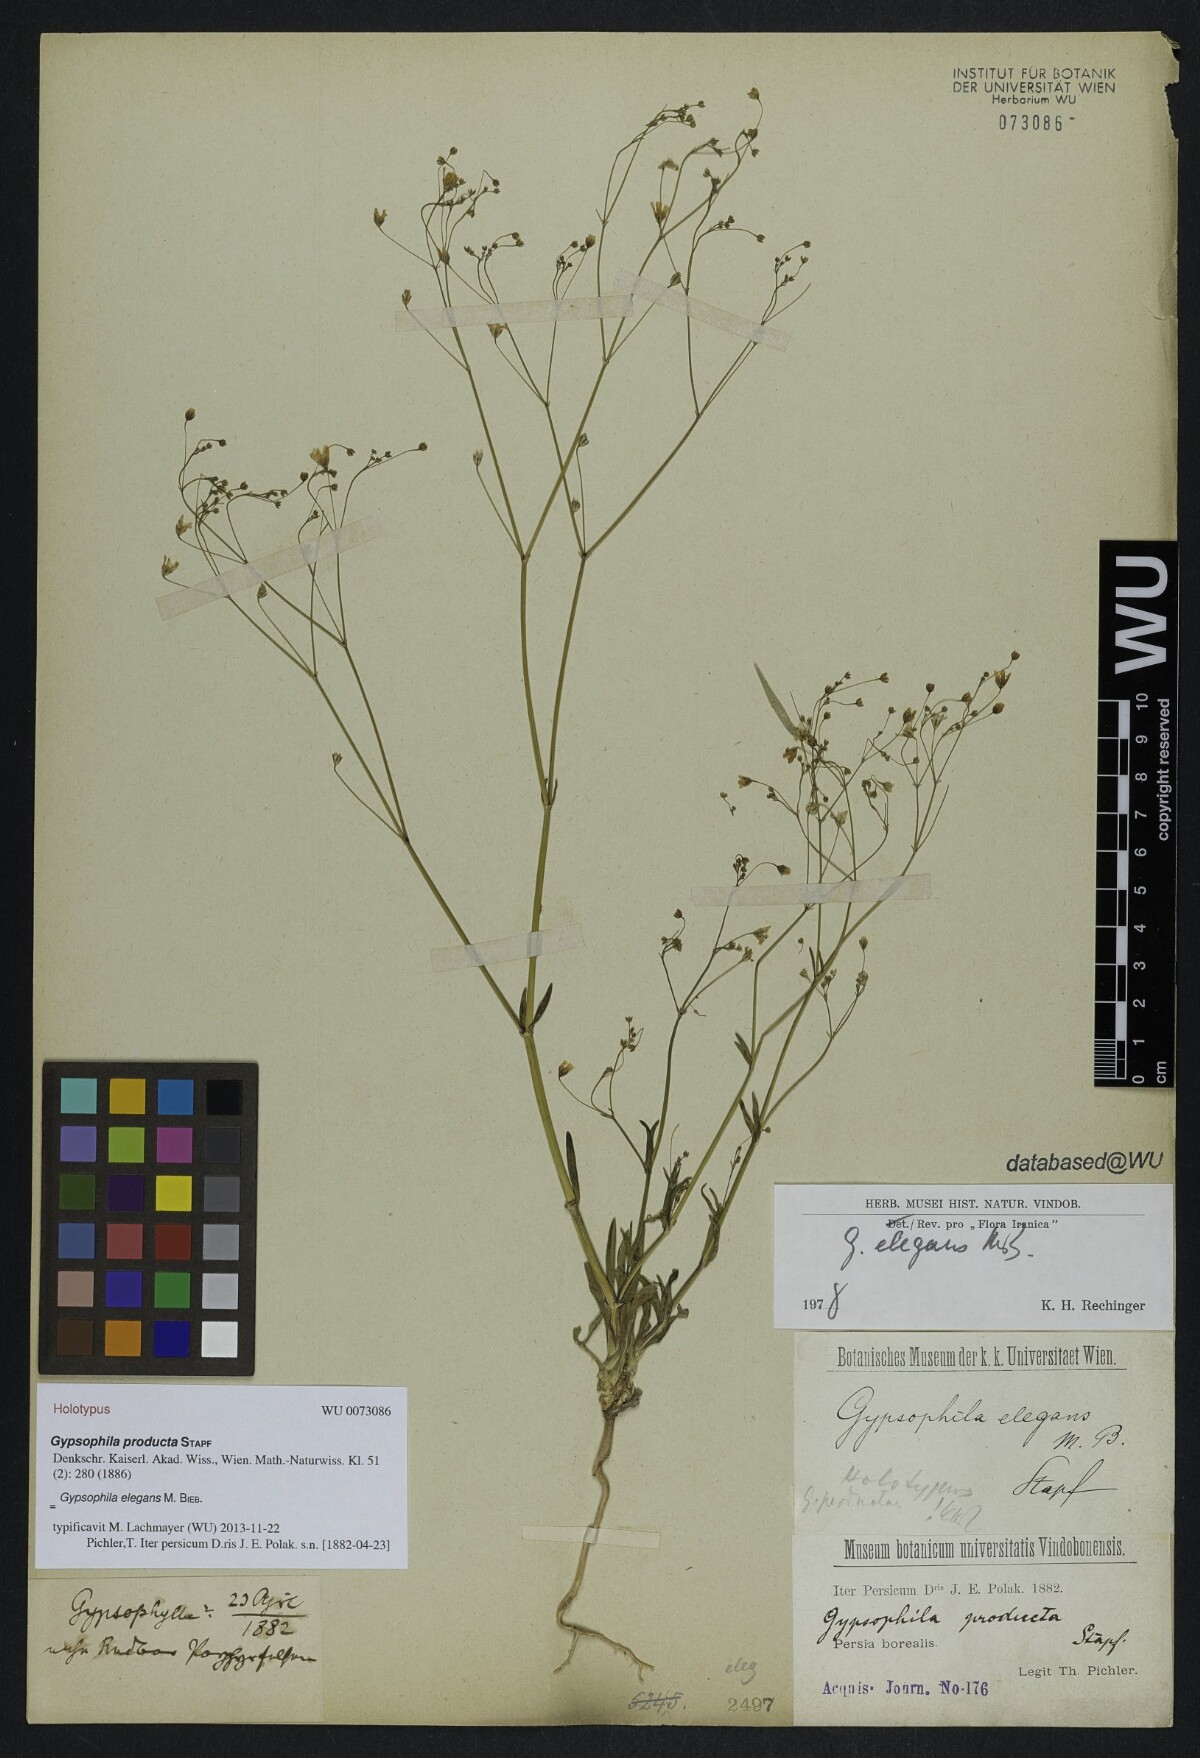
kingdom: Plantae
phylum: Tracheophyta
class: Magnoliopsida
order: Caryophyllales
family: Caryophyllaceae
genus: Gypsophila
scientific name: Gypsophila elegans
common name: Showy baby's-breath
